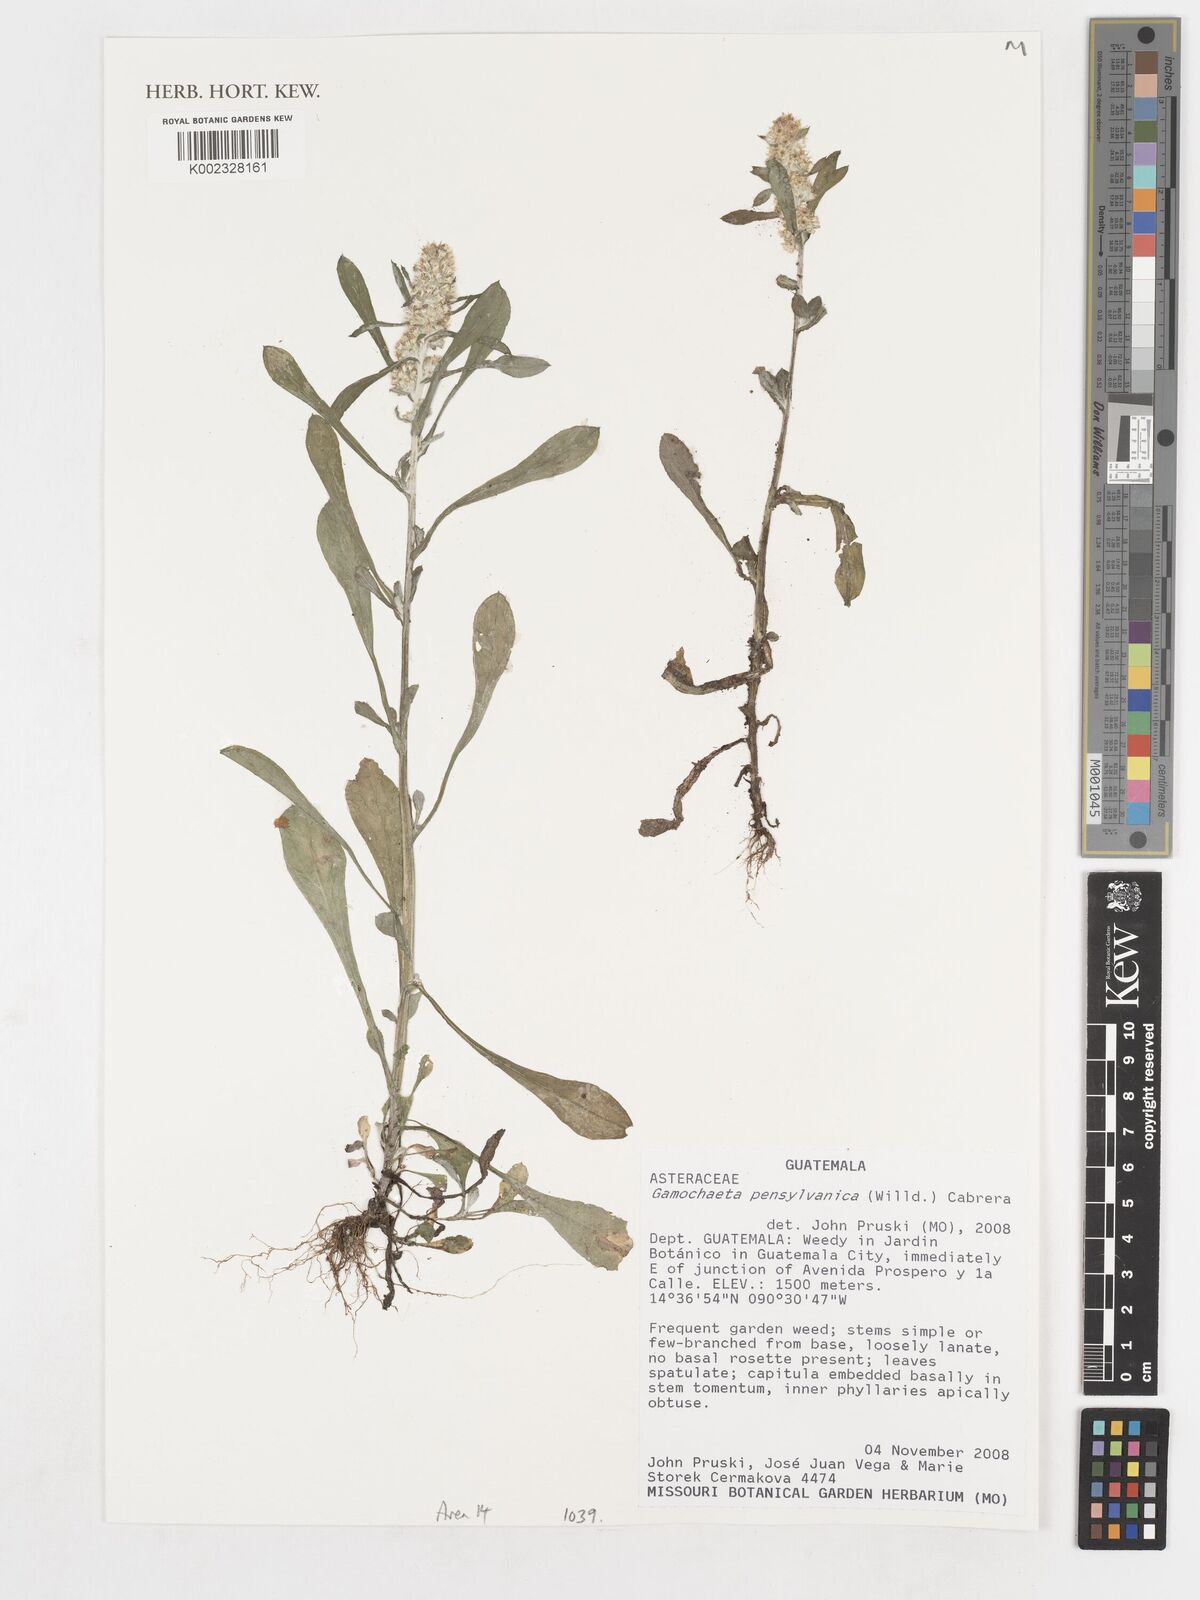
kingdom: Plantae
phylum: Tracheophyta
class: Magnoliopsida
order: Asterales
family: Asteraceae
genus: Gamochaeta
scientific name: Gamochaeta pensylvanica
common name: Pennsylvania everlasting
